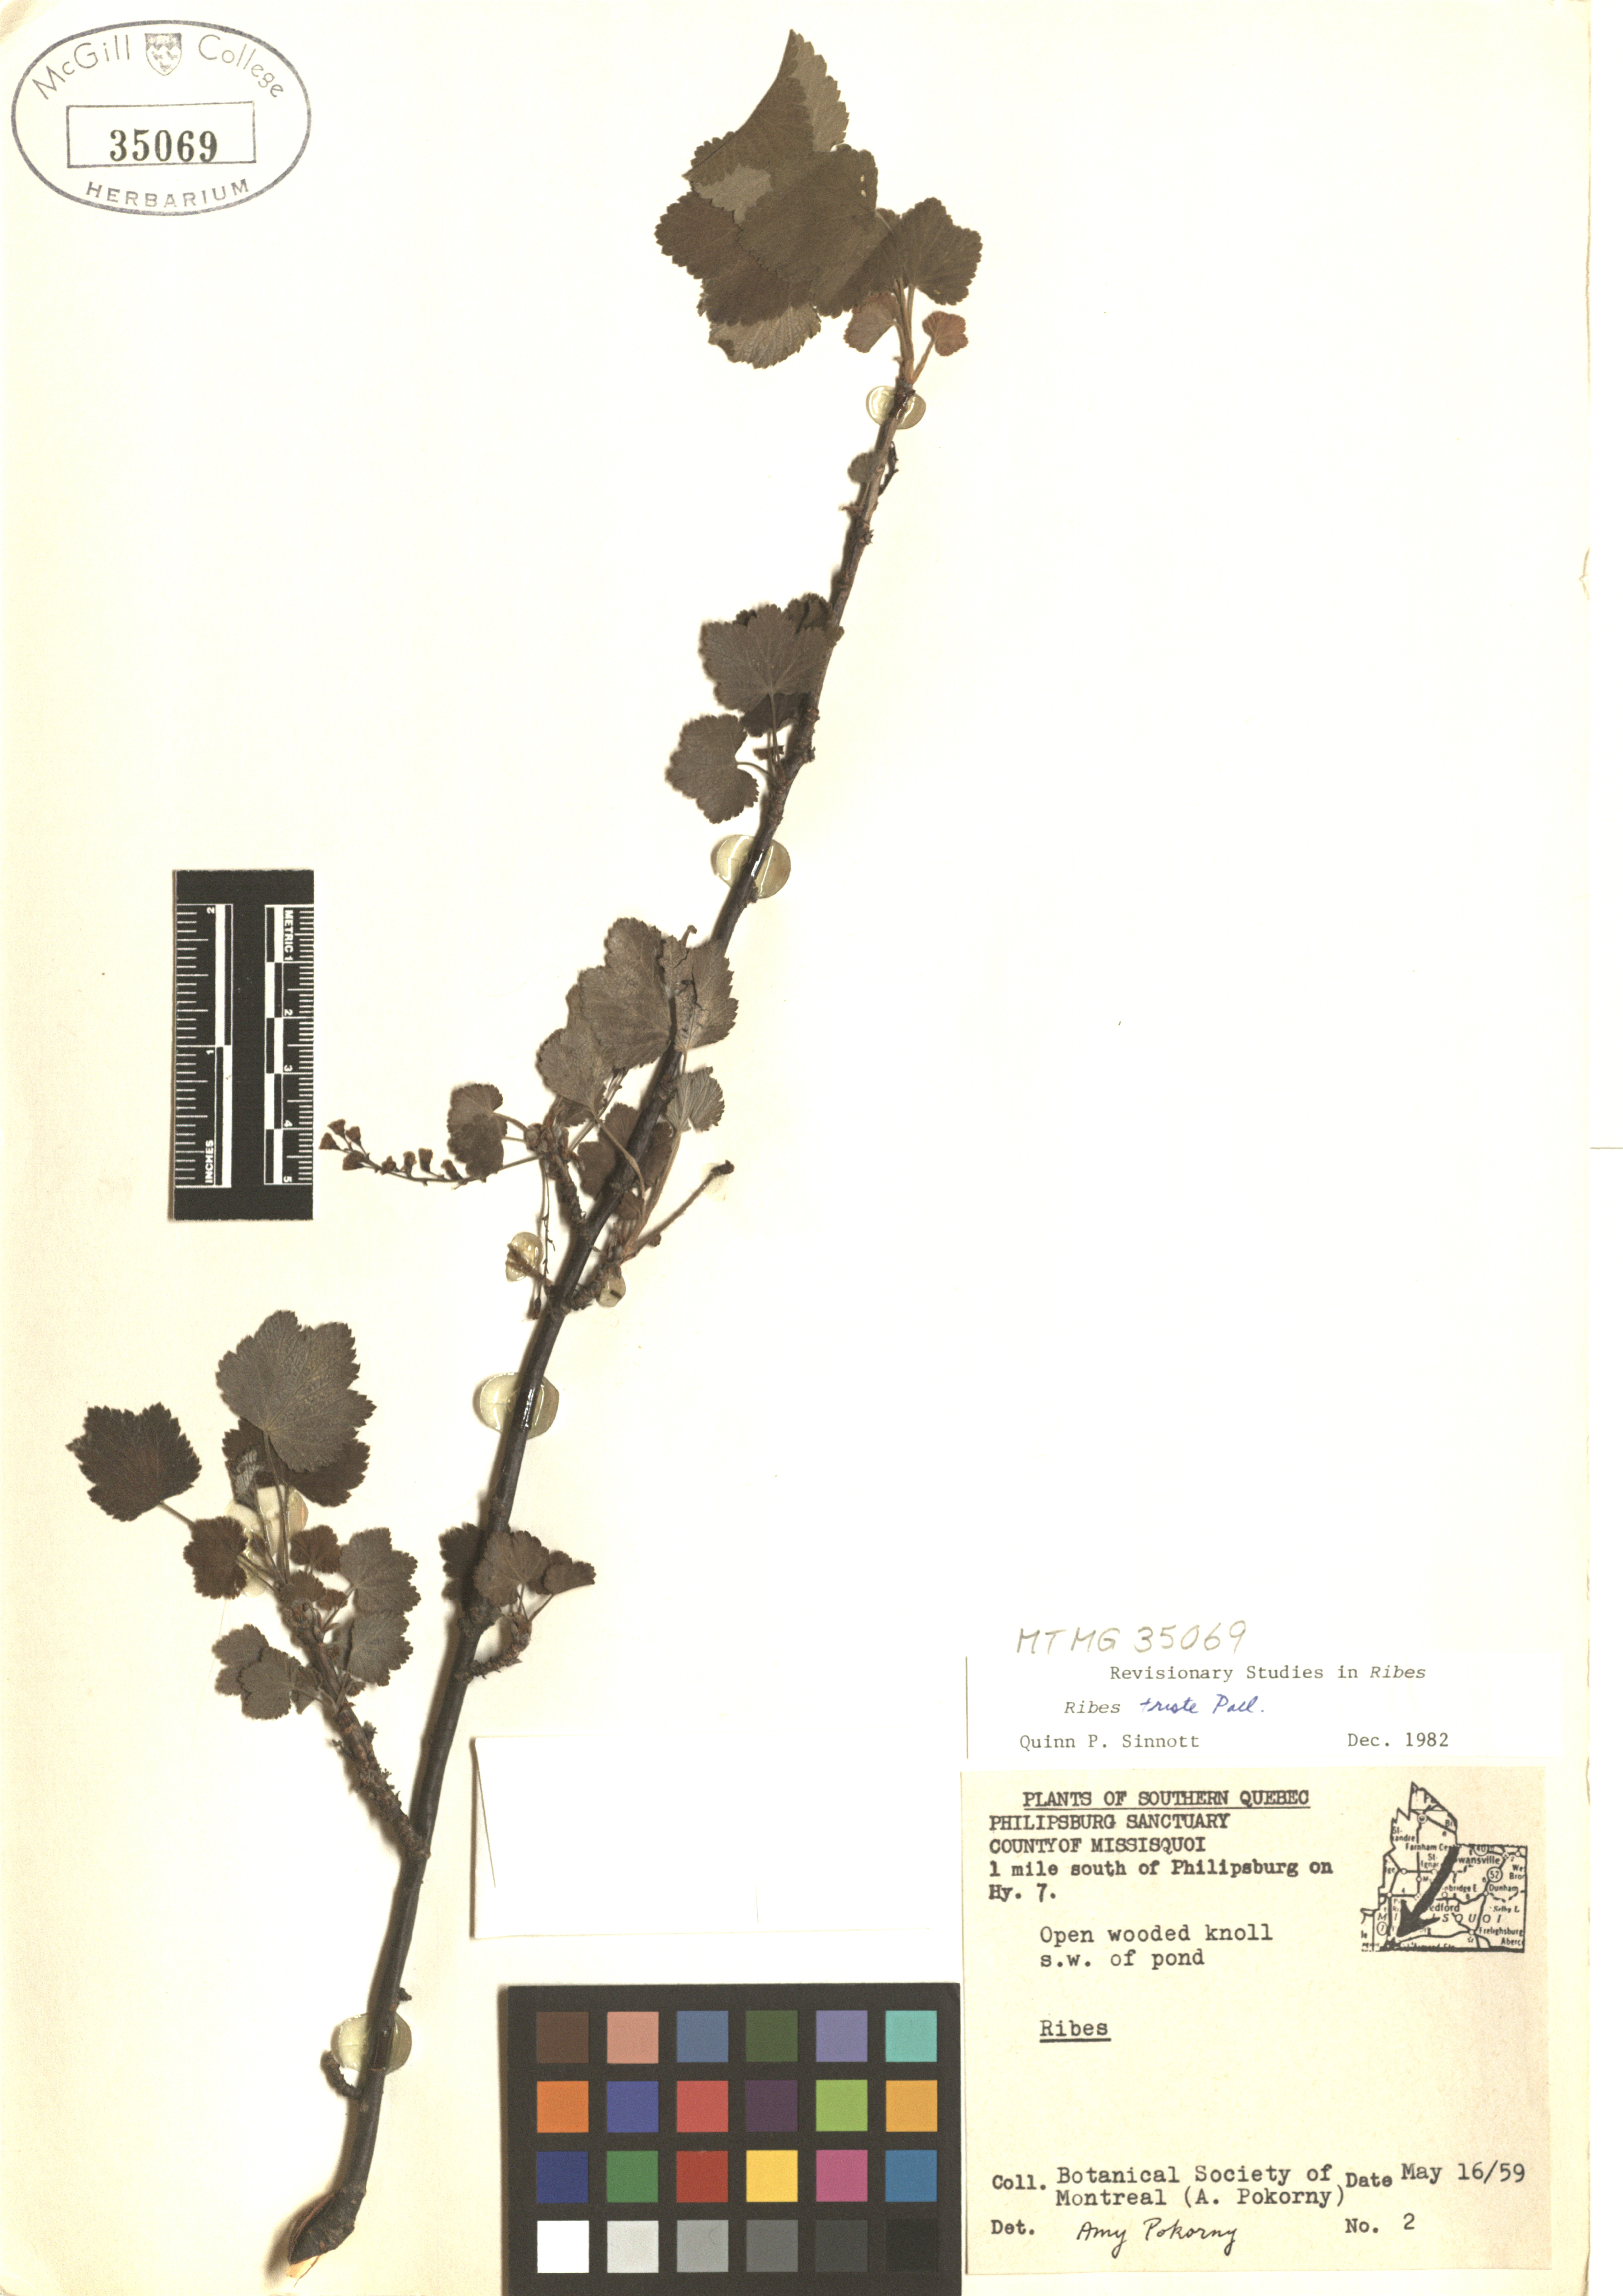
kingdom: Plantae
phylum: Tracheophyta
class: Magnoliopsida
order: Saxifragales
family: Grossulariaceae
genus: Ribes
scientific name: Ribes triste
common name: Swamp red currant
